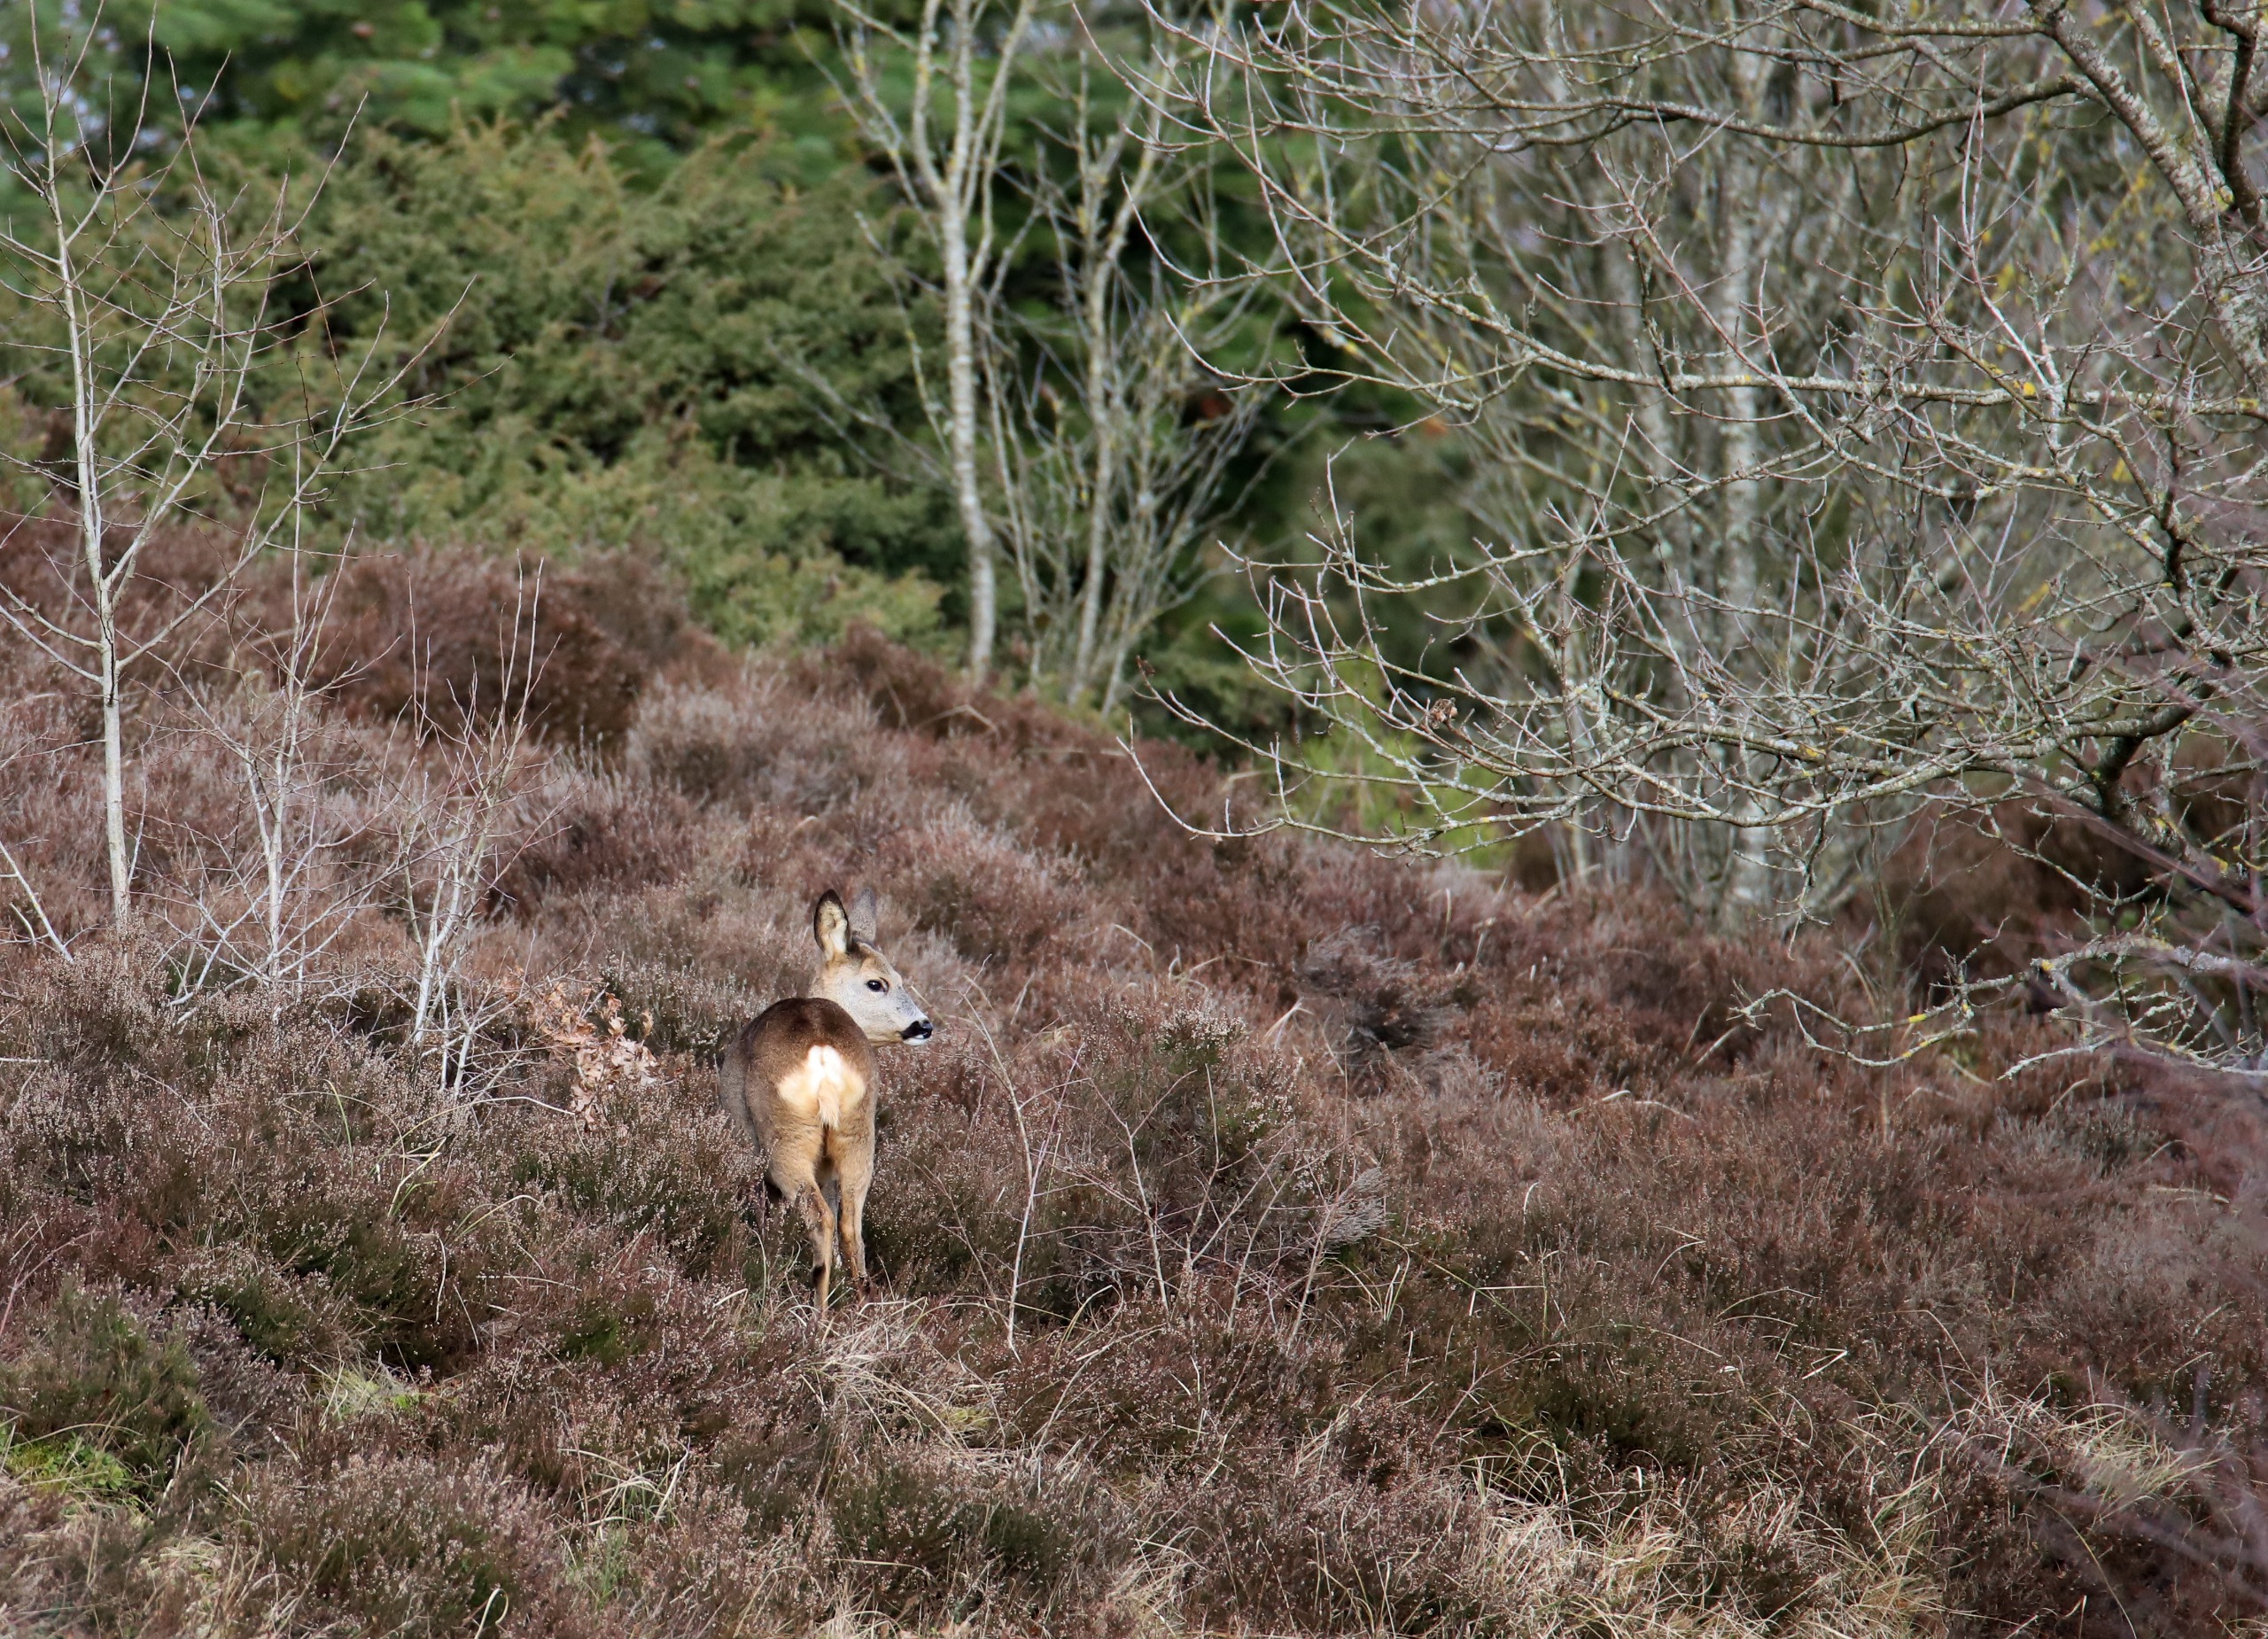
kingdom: Animalia
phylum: Chordata
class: Mammalia
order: Artiodactyla
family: Cervidae
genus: Capreolus
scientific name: Capreolus capreolus
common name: Rådyr
